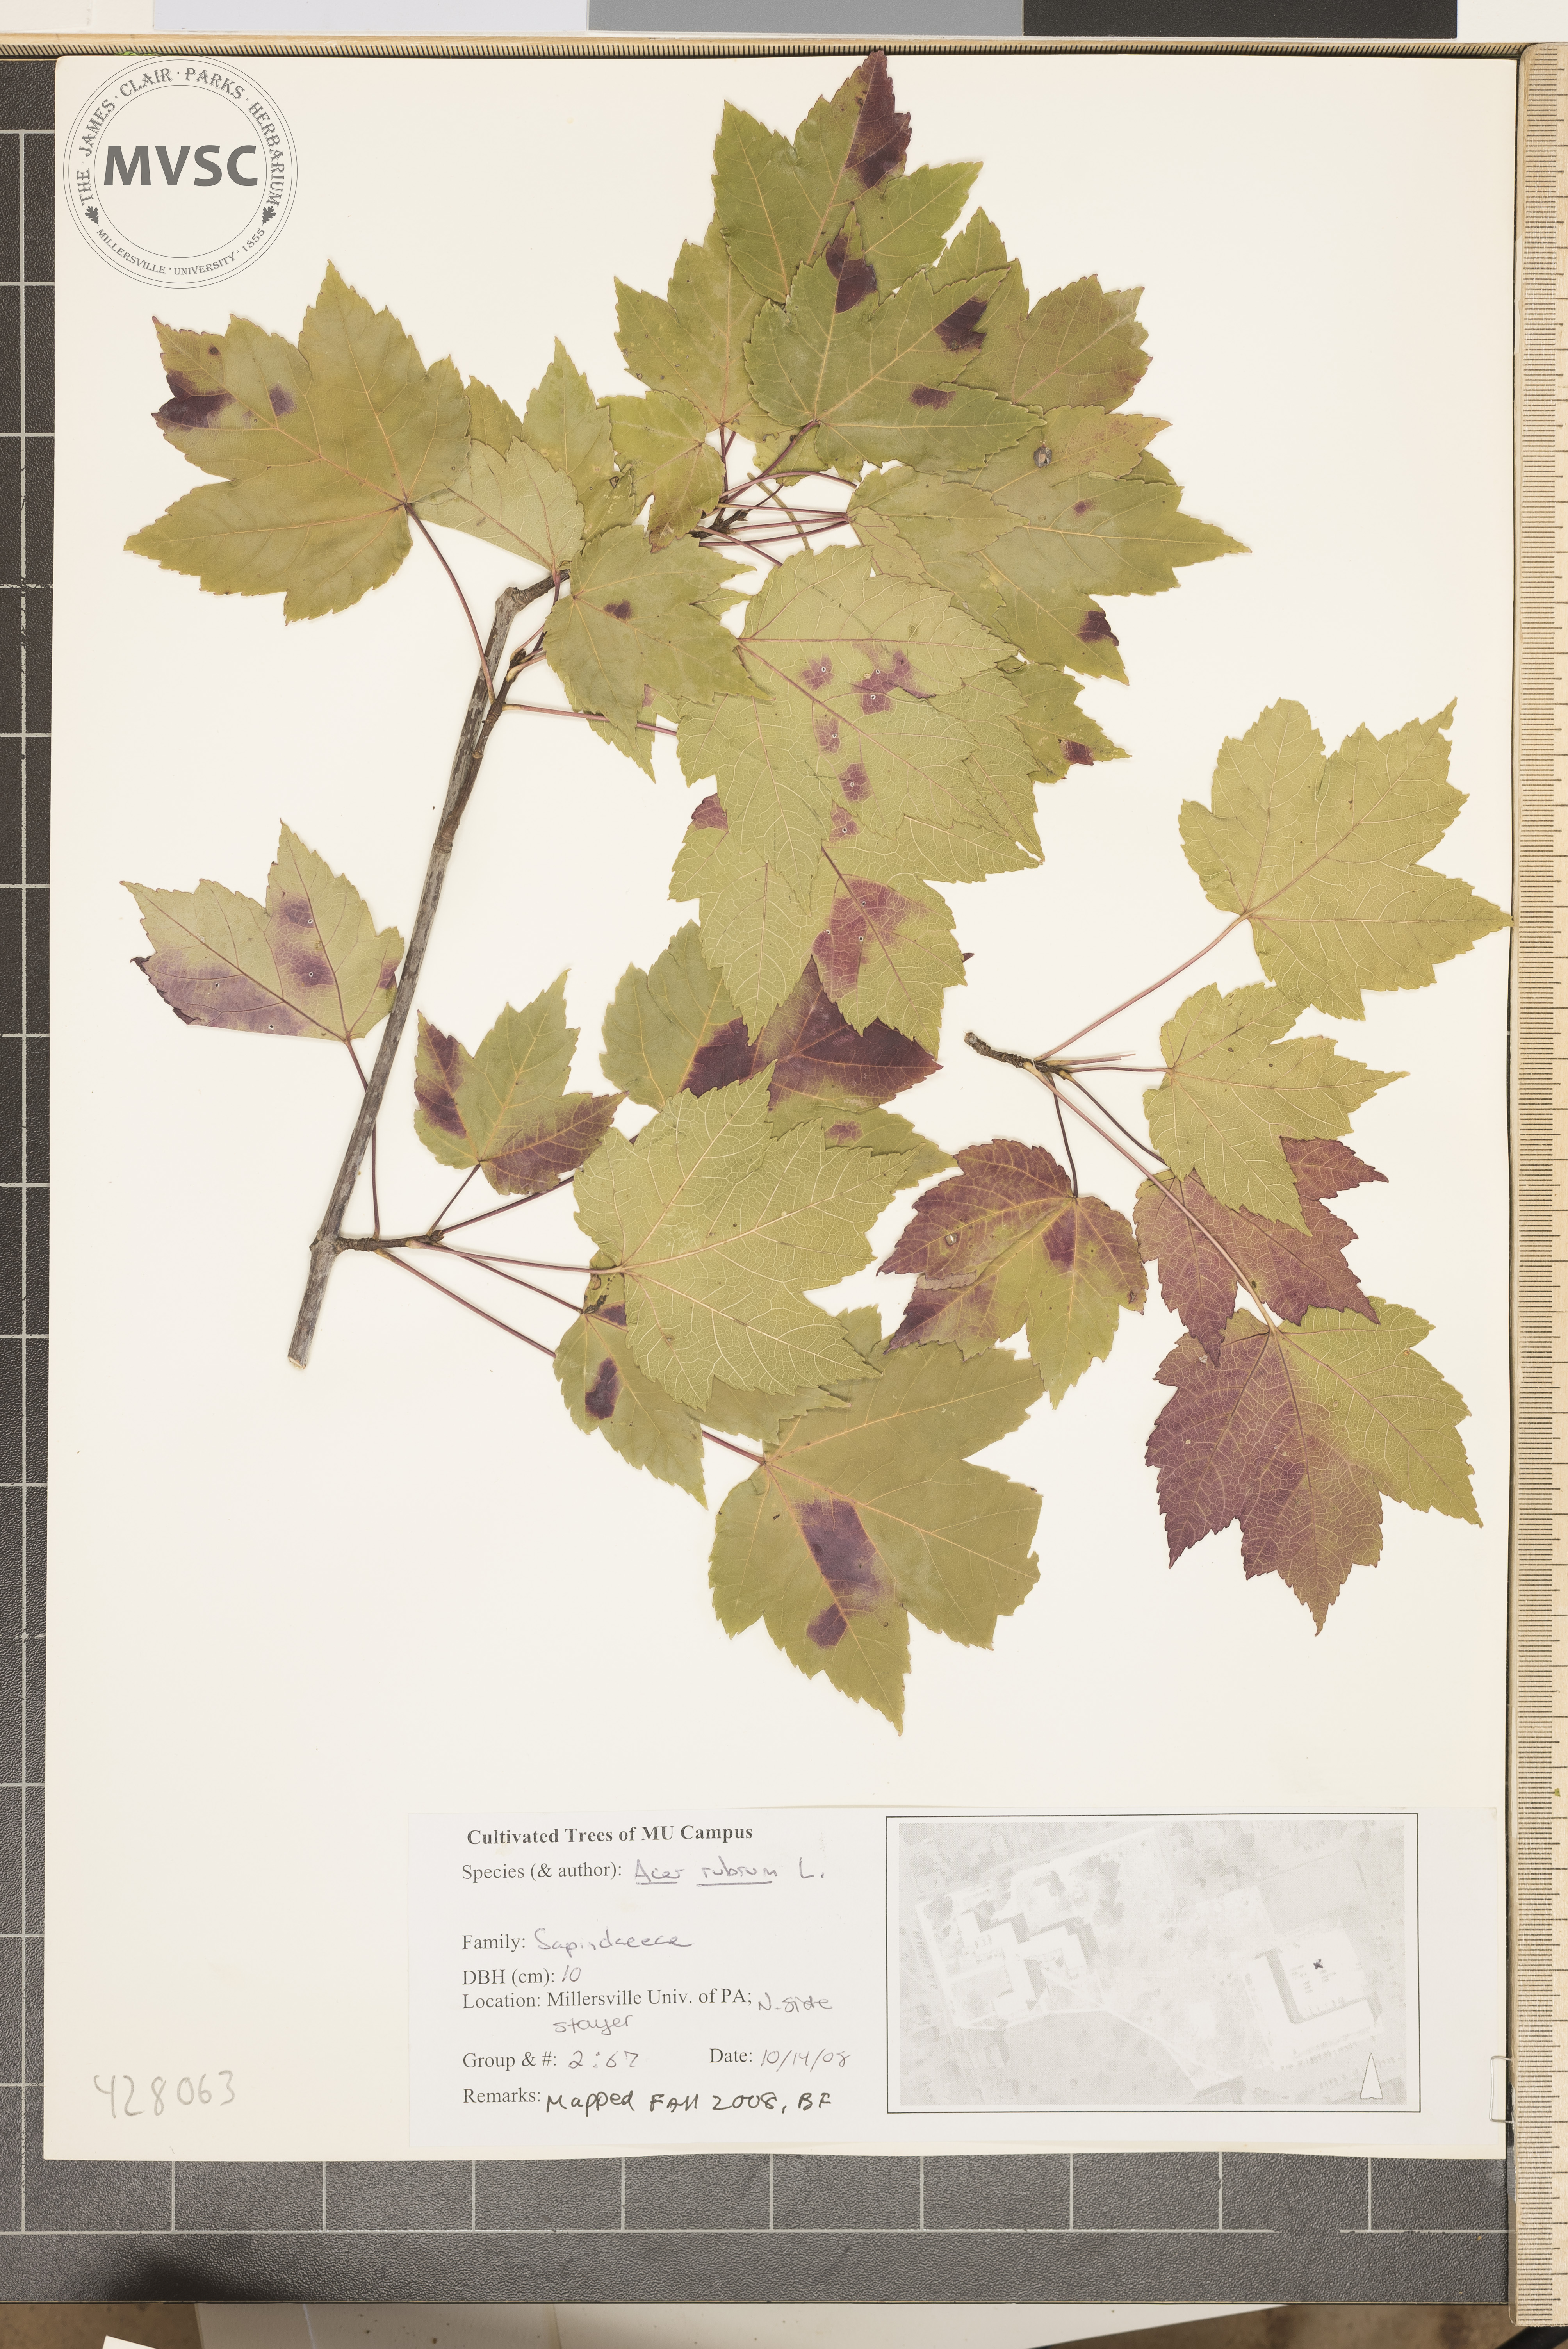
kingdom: Plantae
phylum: Tracheophyta
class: Magnoliopsida
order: Sapindales
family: Sapindaceae
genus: Acer
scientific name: Acer rubrum
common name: Red Maple
